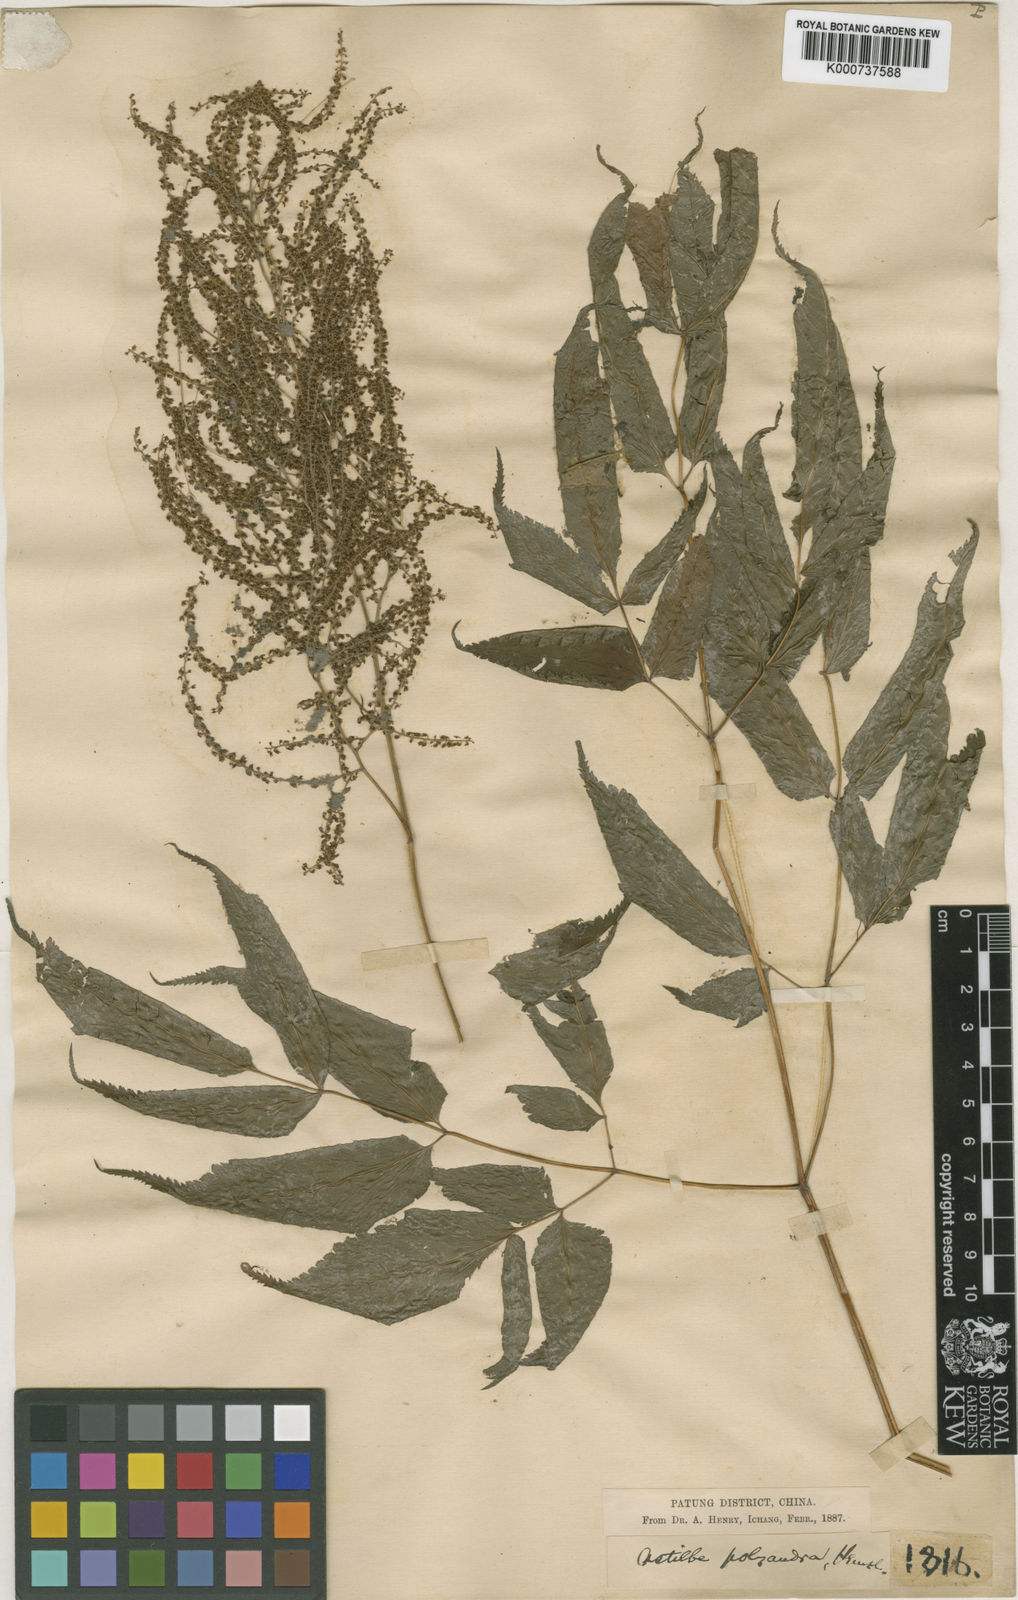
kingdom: Plantae
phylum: Tracheophyta
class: Magnoliopsida
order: Rosales
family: Rosaceae
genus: Aruncus
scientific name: Aruncus sylvester
